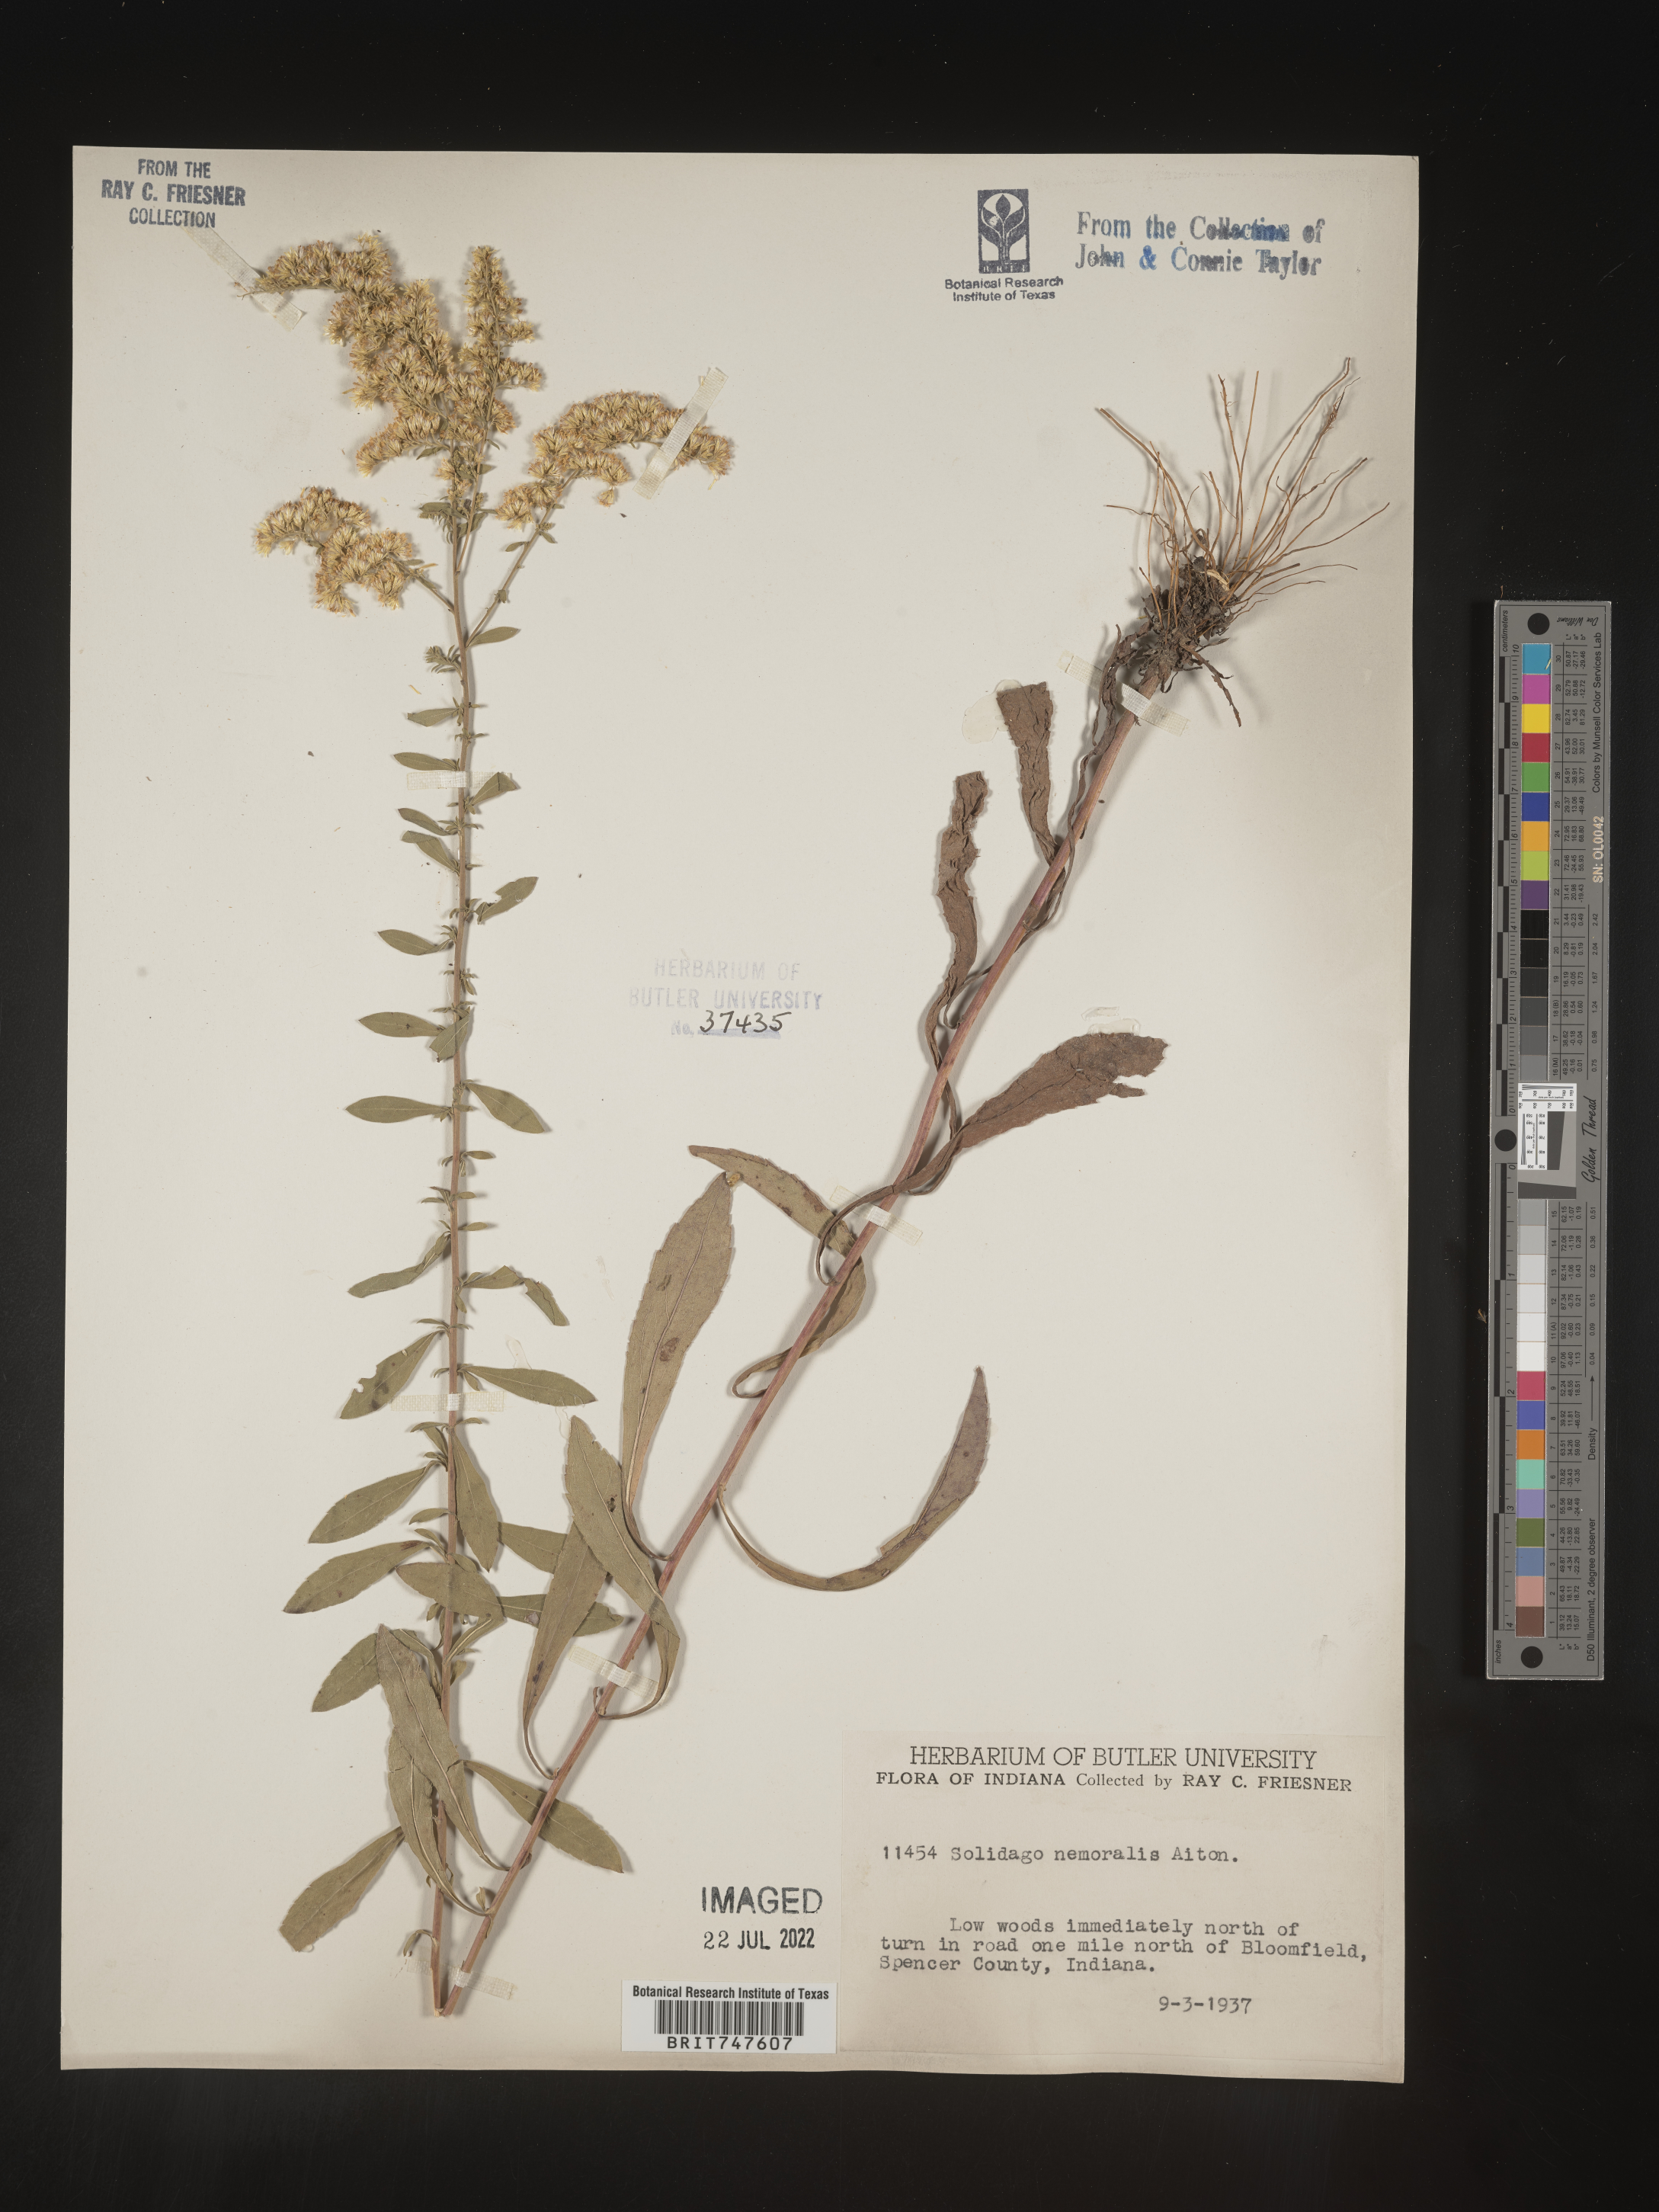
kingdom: Plantae
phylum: Tracheophyta
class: Magnoliopsida
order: Asterales
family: Asteraceae
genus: Solidago
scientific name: Solidago nemoralis
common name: Grey goldenrod
